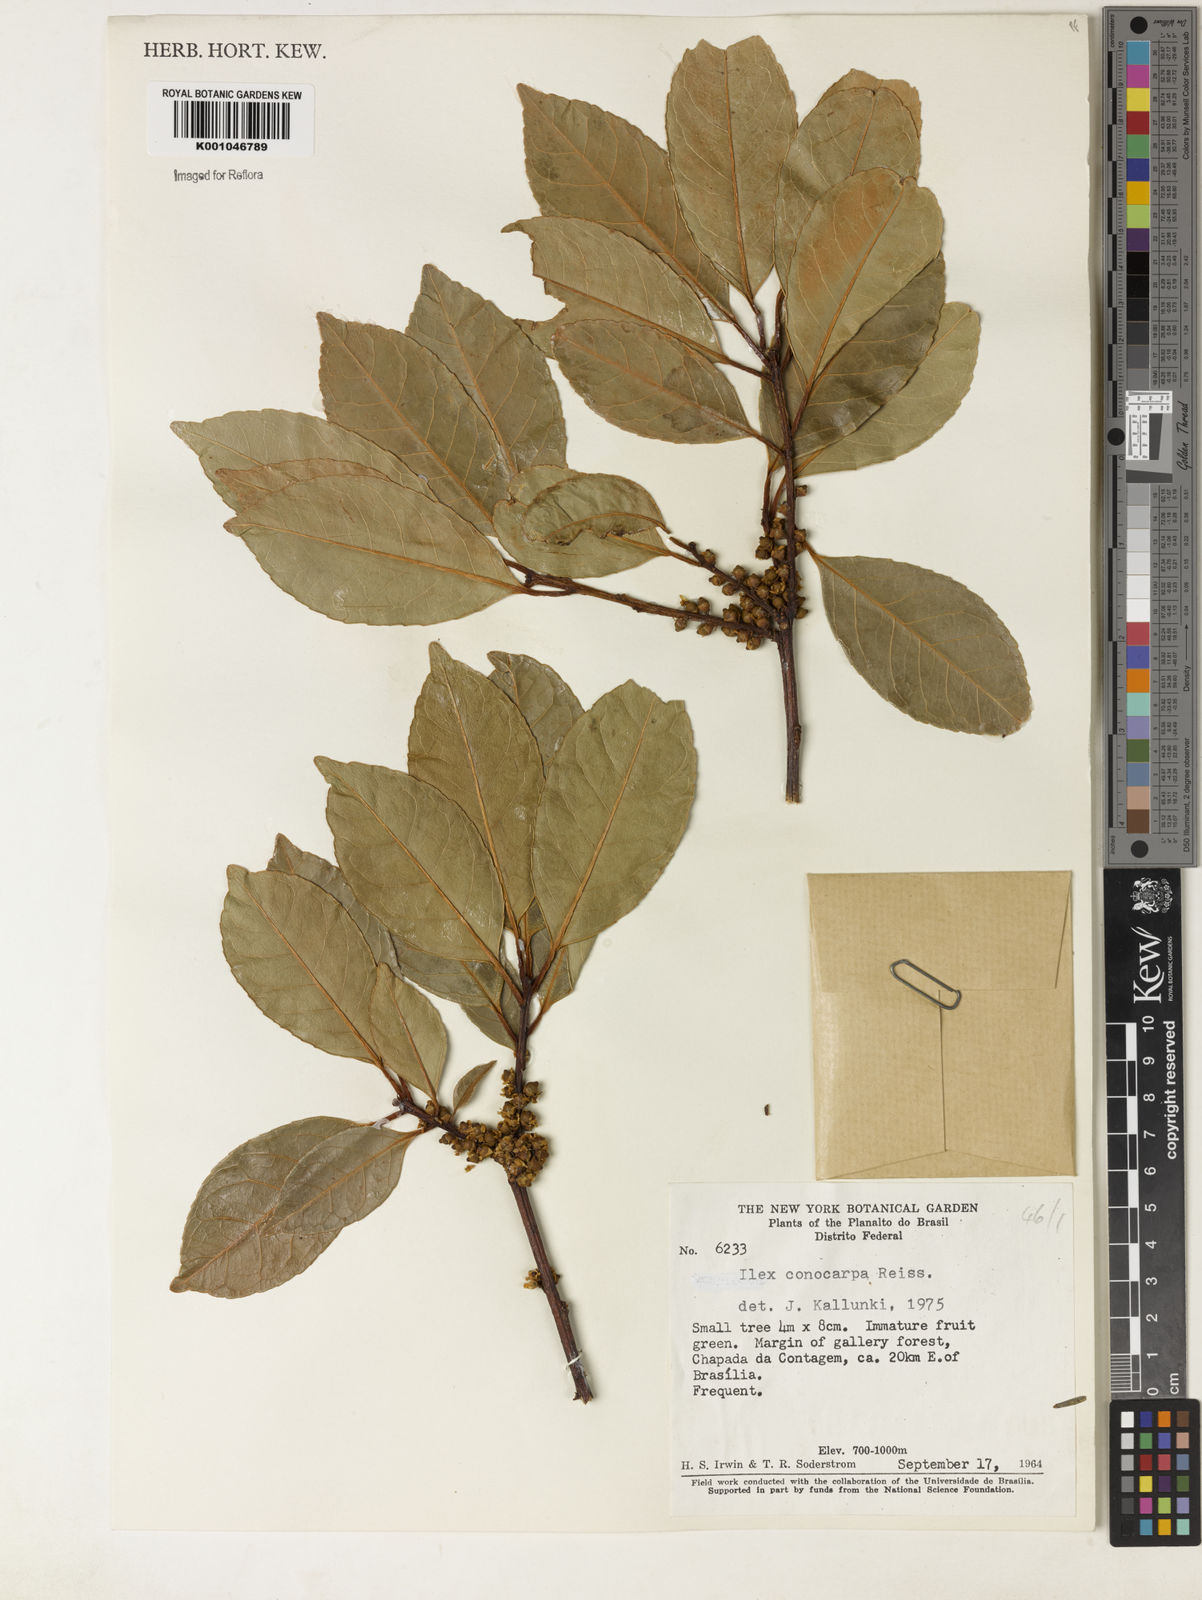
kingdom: Plantae
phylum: Tracheophyta
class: Magnoliopsida
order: Aquifoliales
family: Aquifoliaceae
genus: Ilex
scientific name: Ilex conocarpa
